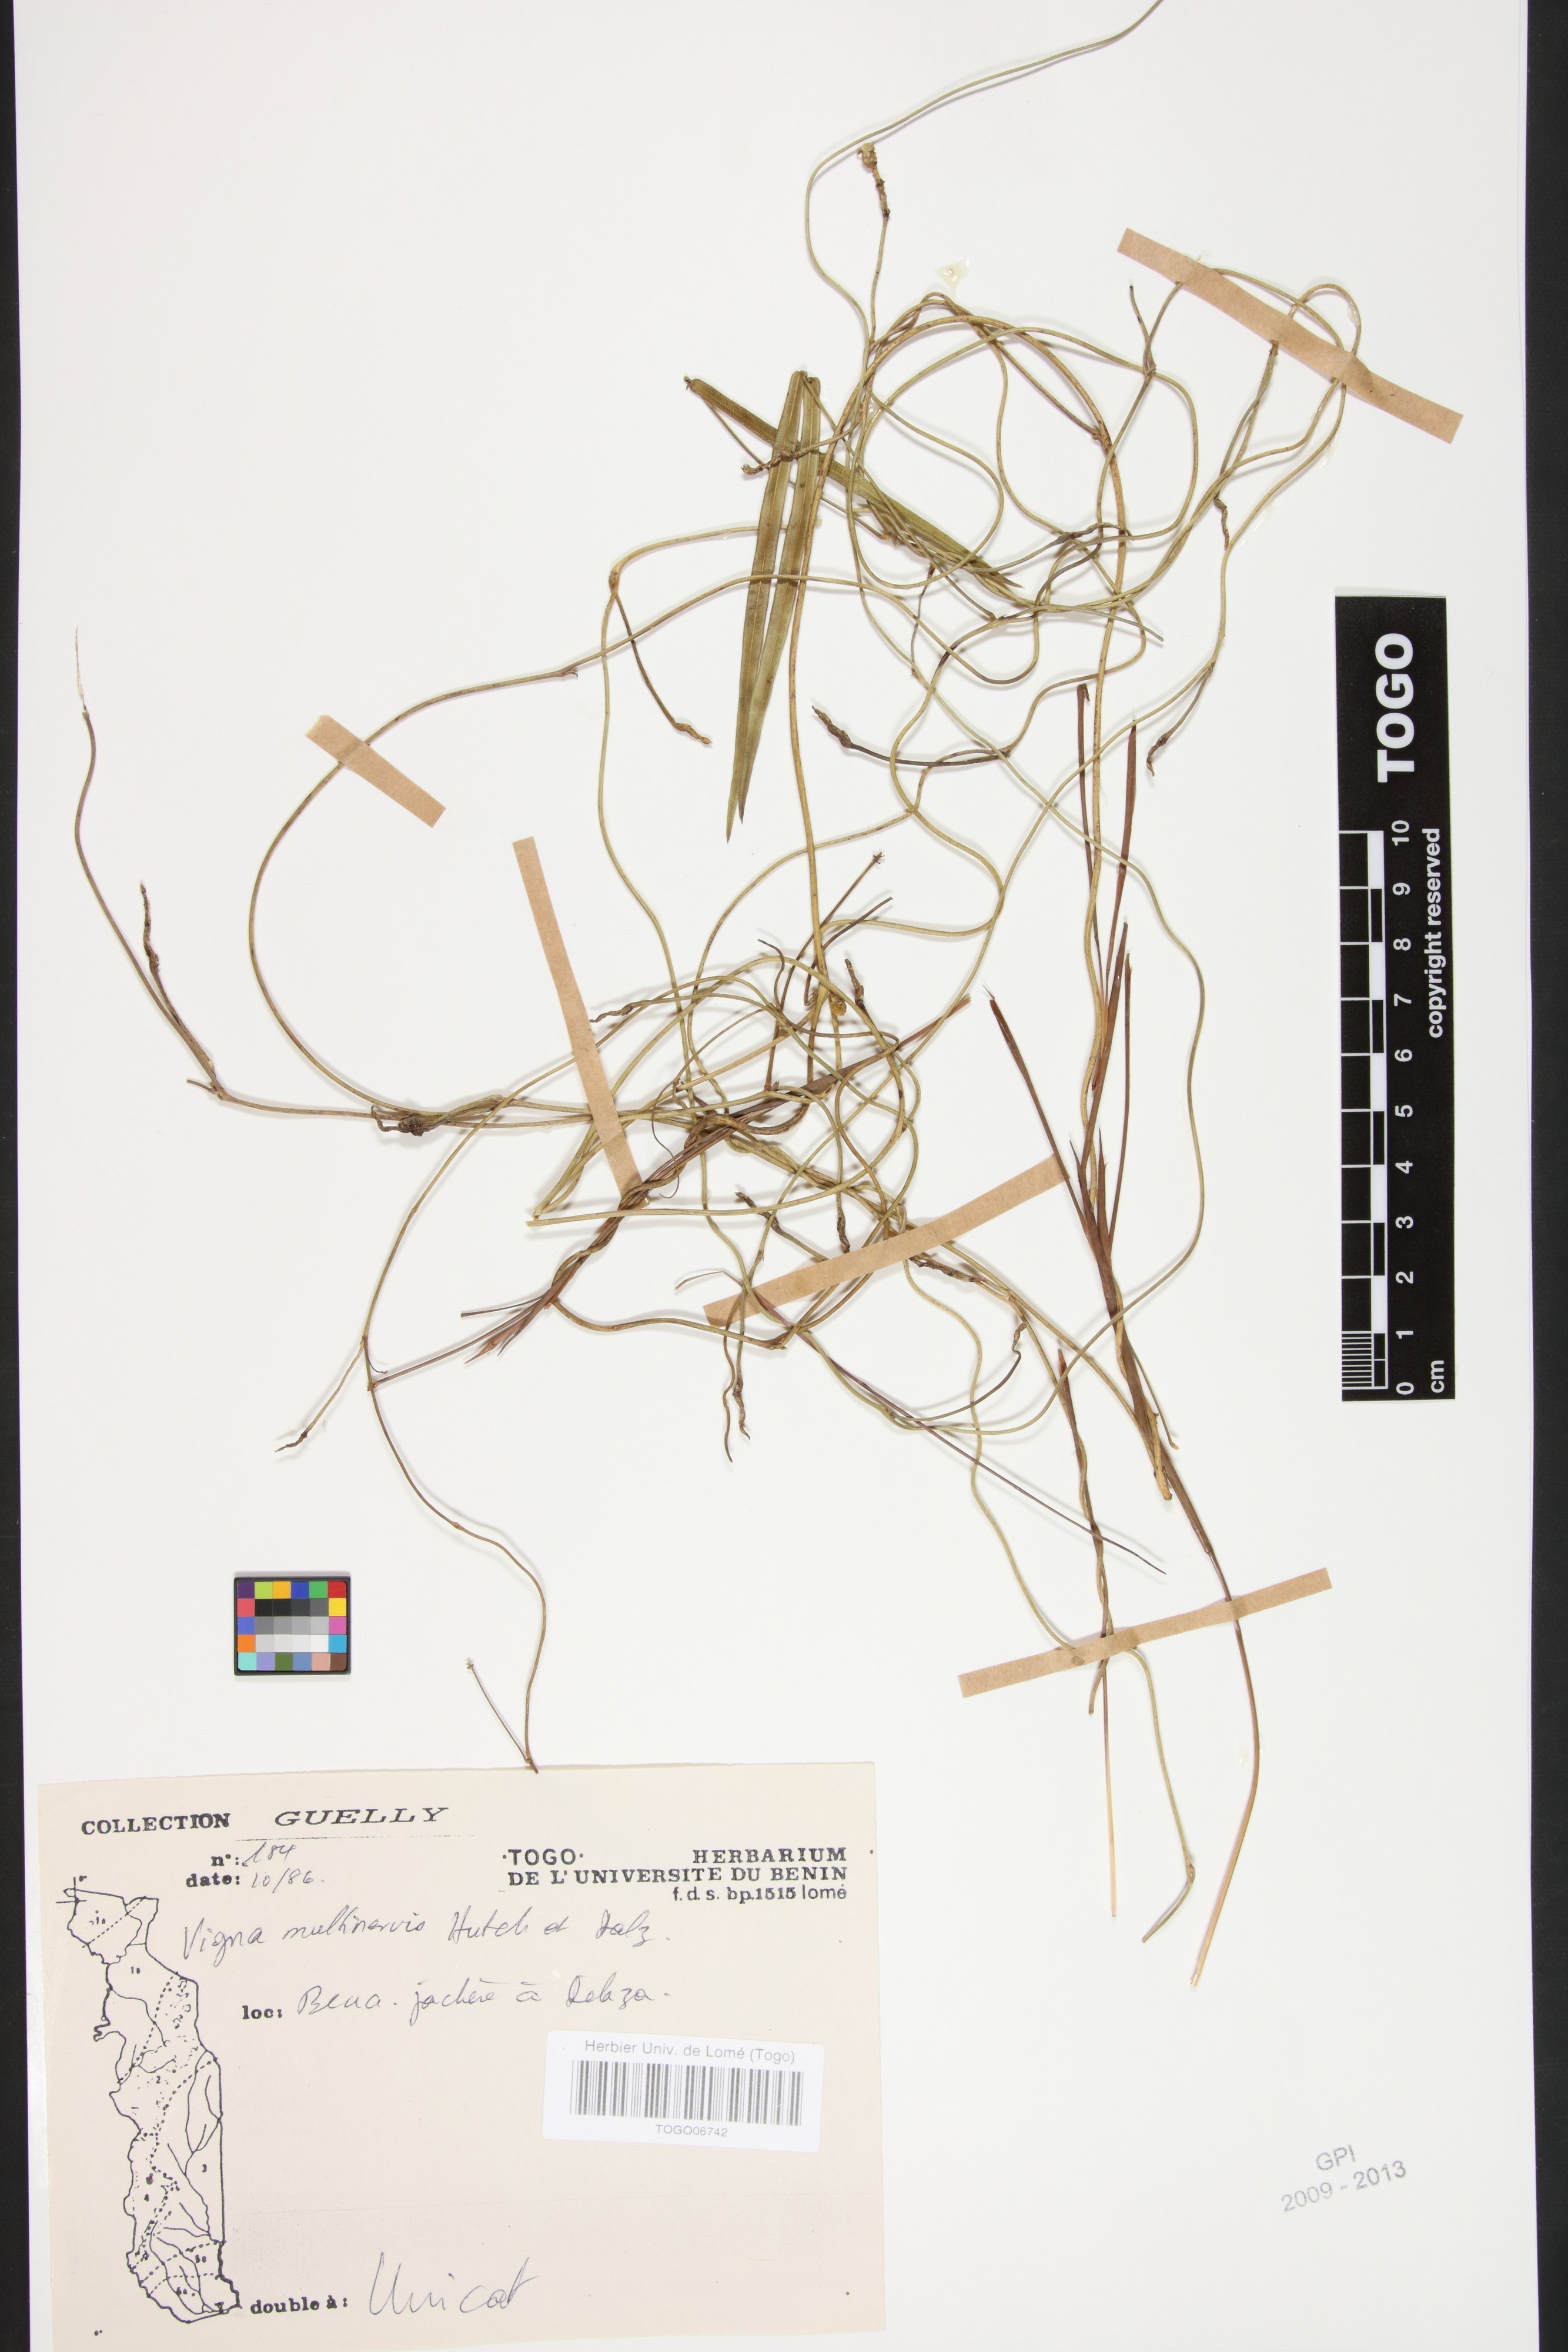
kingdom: Plantae
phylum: Tracheophyta
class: Magnoliopsida
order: Fabales
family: Fabaceae
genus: Vigna
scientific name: Vigna multinervis
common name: Fula-pulaar
